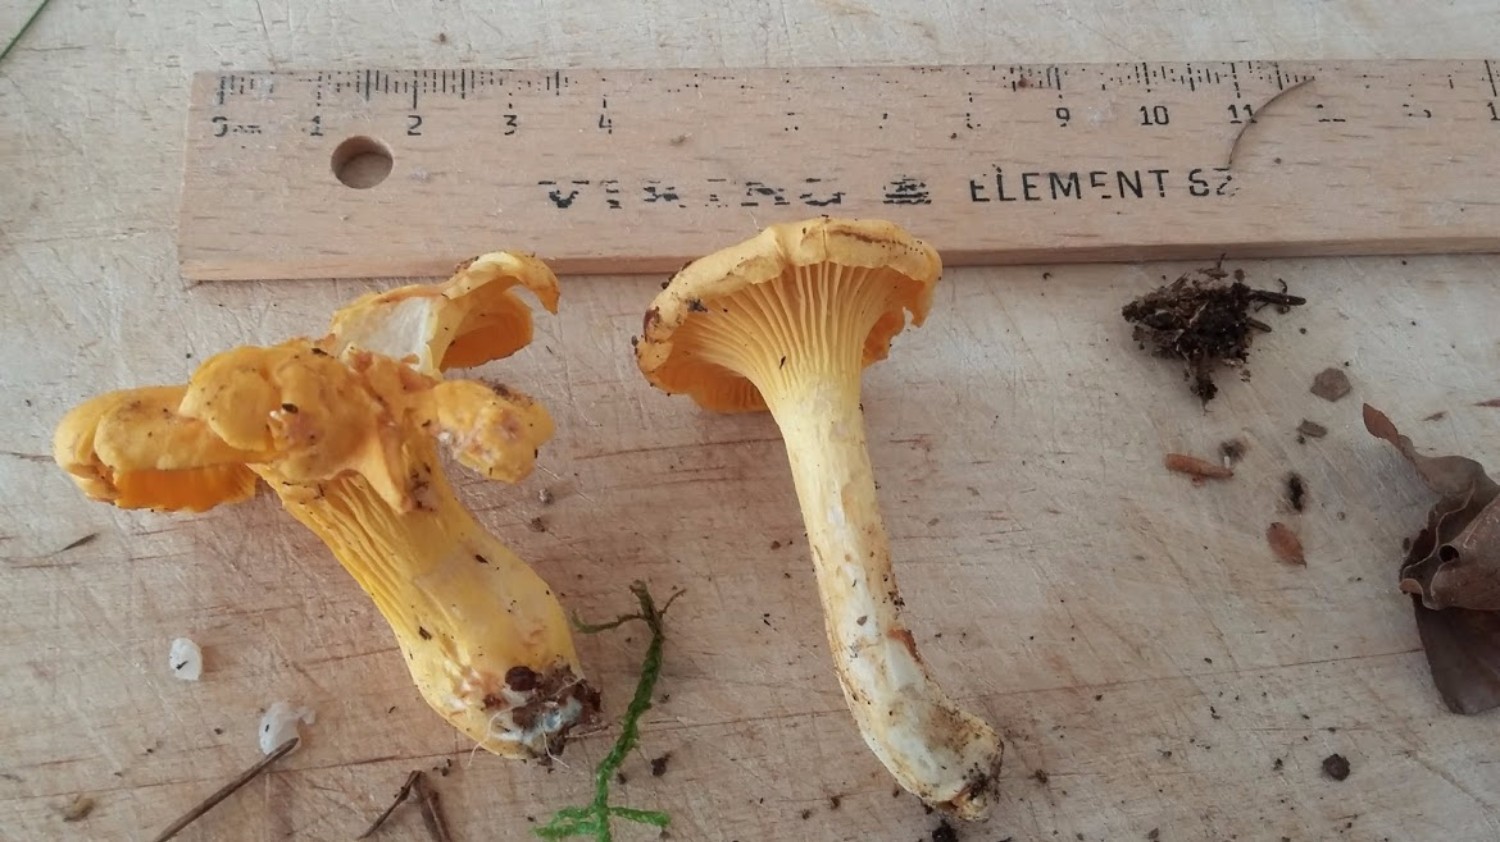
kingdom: Fungi
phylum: Basidiomycota
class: Agaricomycetes
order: Cantharellales
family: Hydnaceae
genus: Cantharellus
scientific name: Cantharellus cibarius
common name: almindelig kantarel
